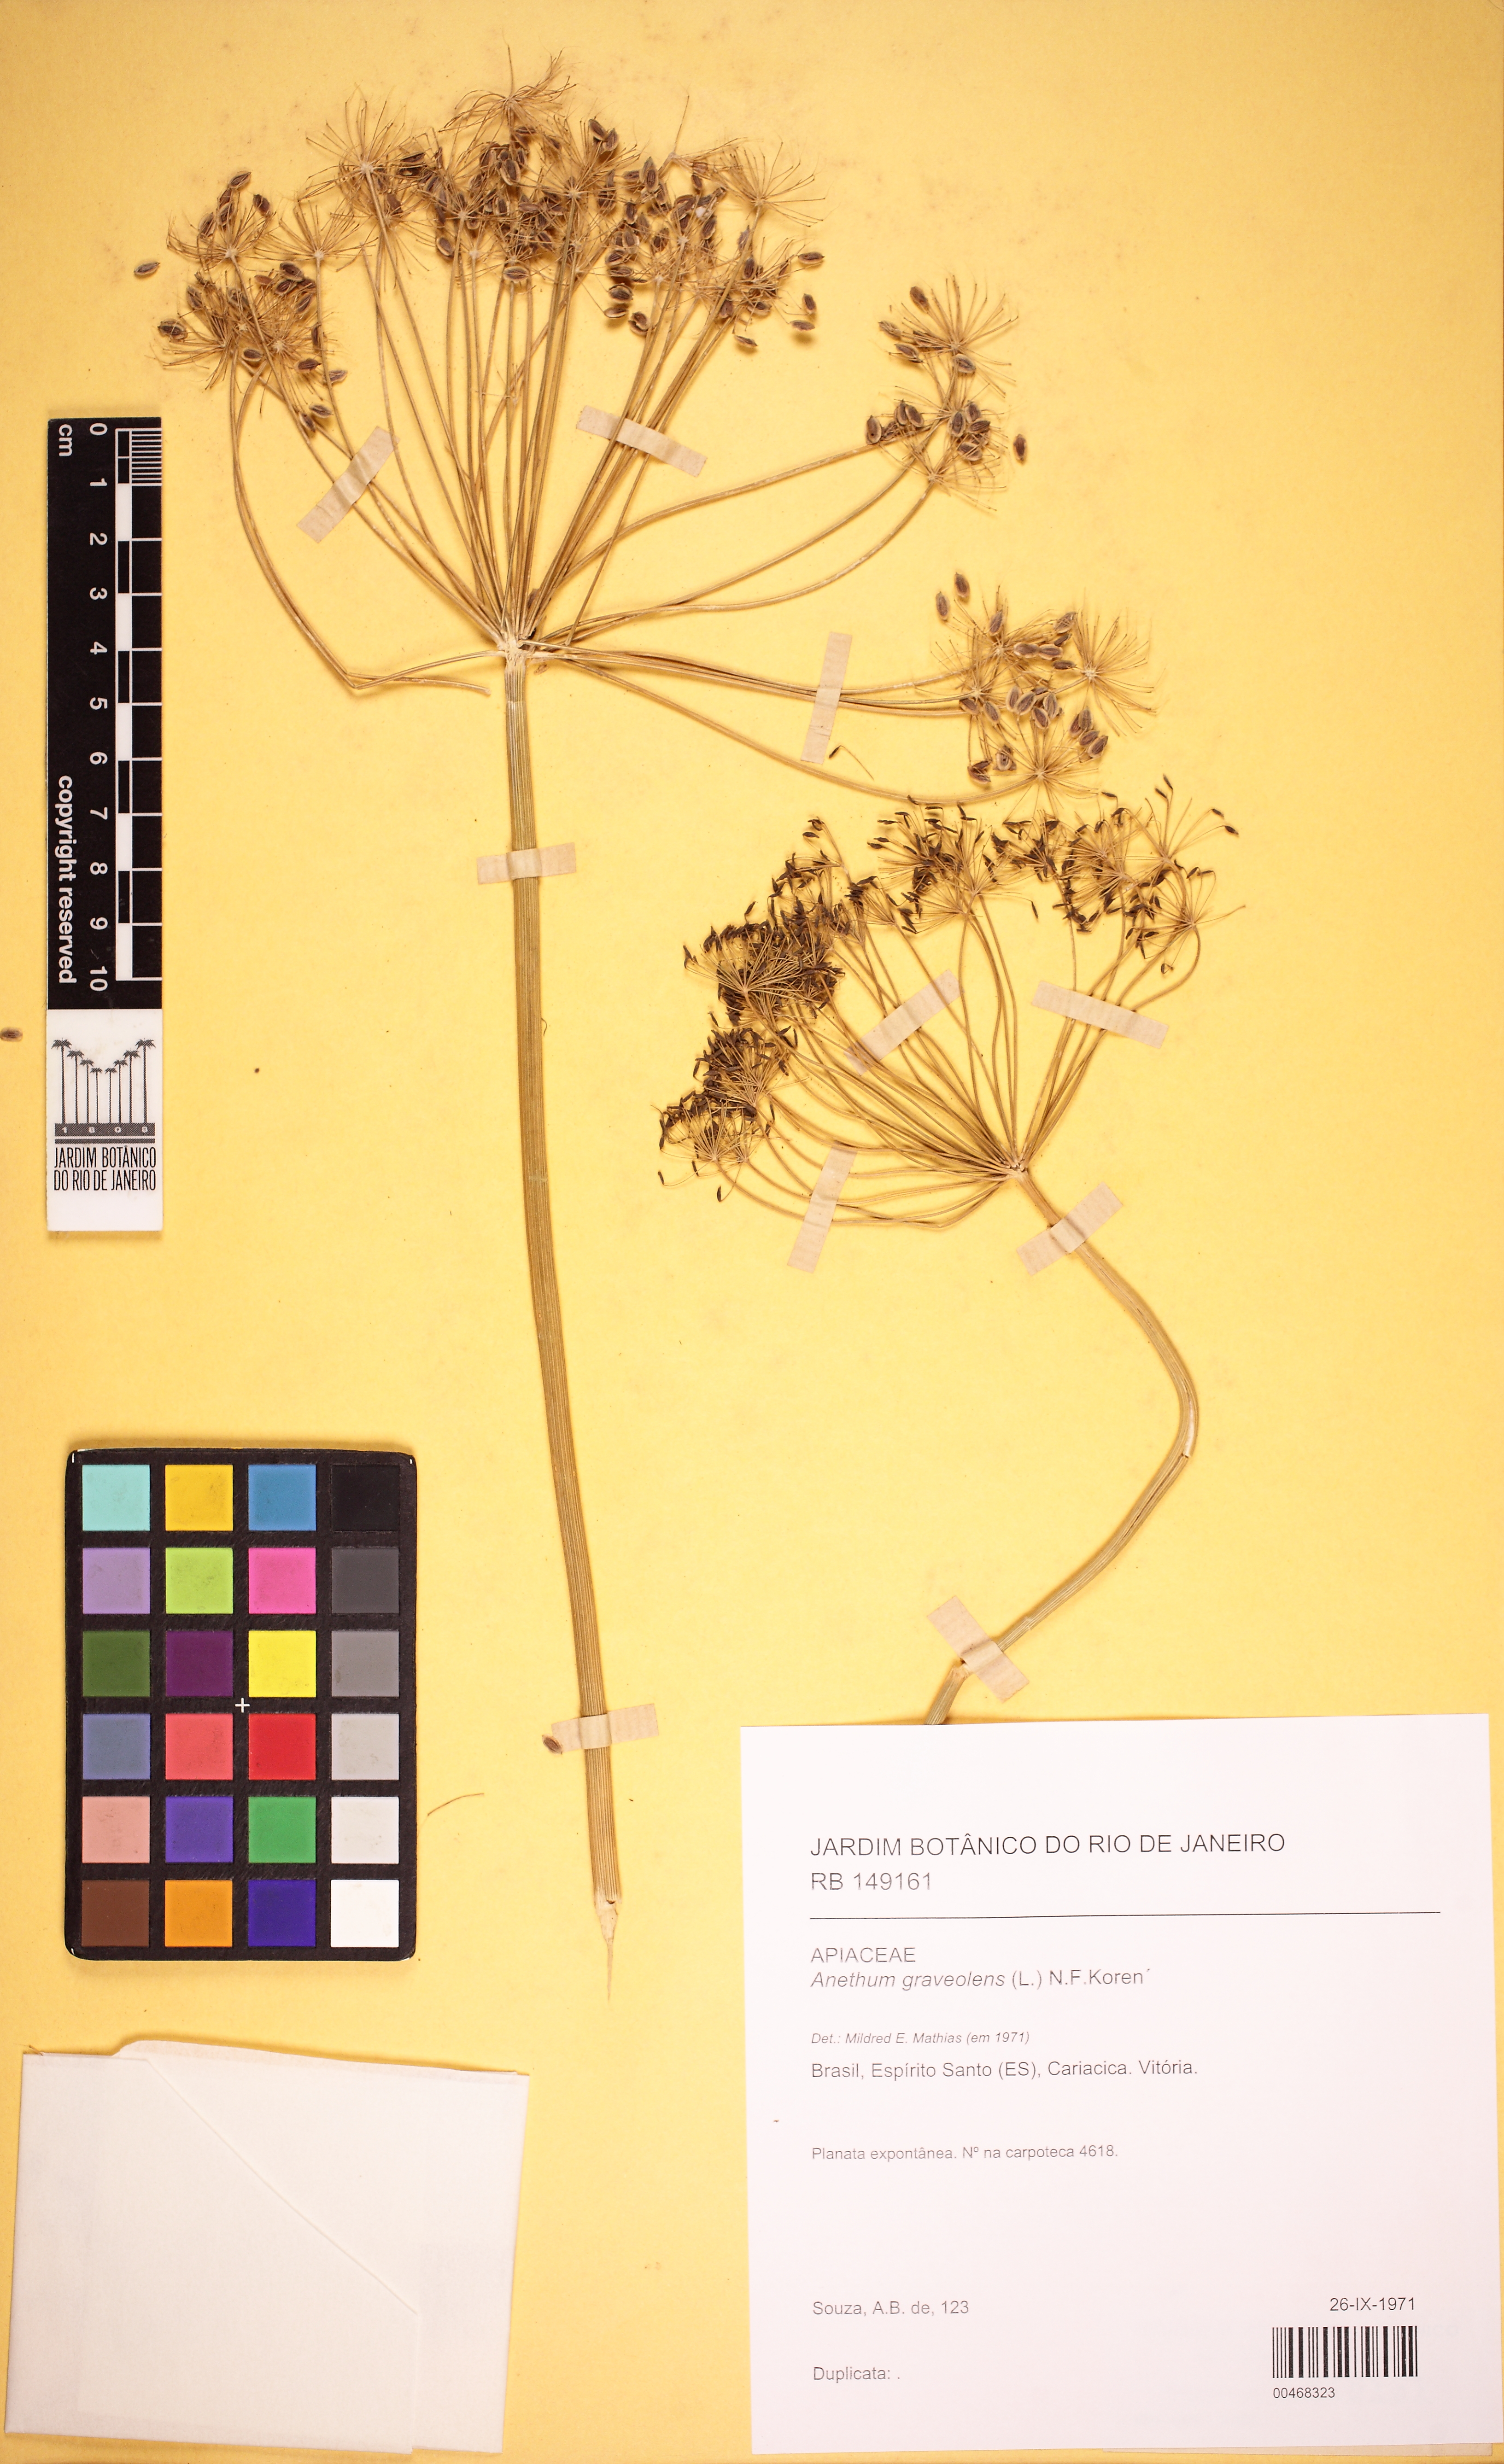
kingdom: Plantae
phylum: Tracheophyta
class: Magnoliopsida
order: Apiales
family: Apiaceae
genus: Anethum
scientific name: Anethum graveolens
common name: Dill
